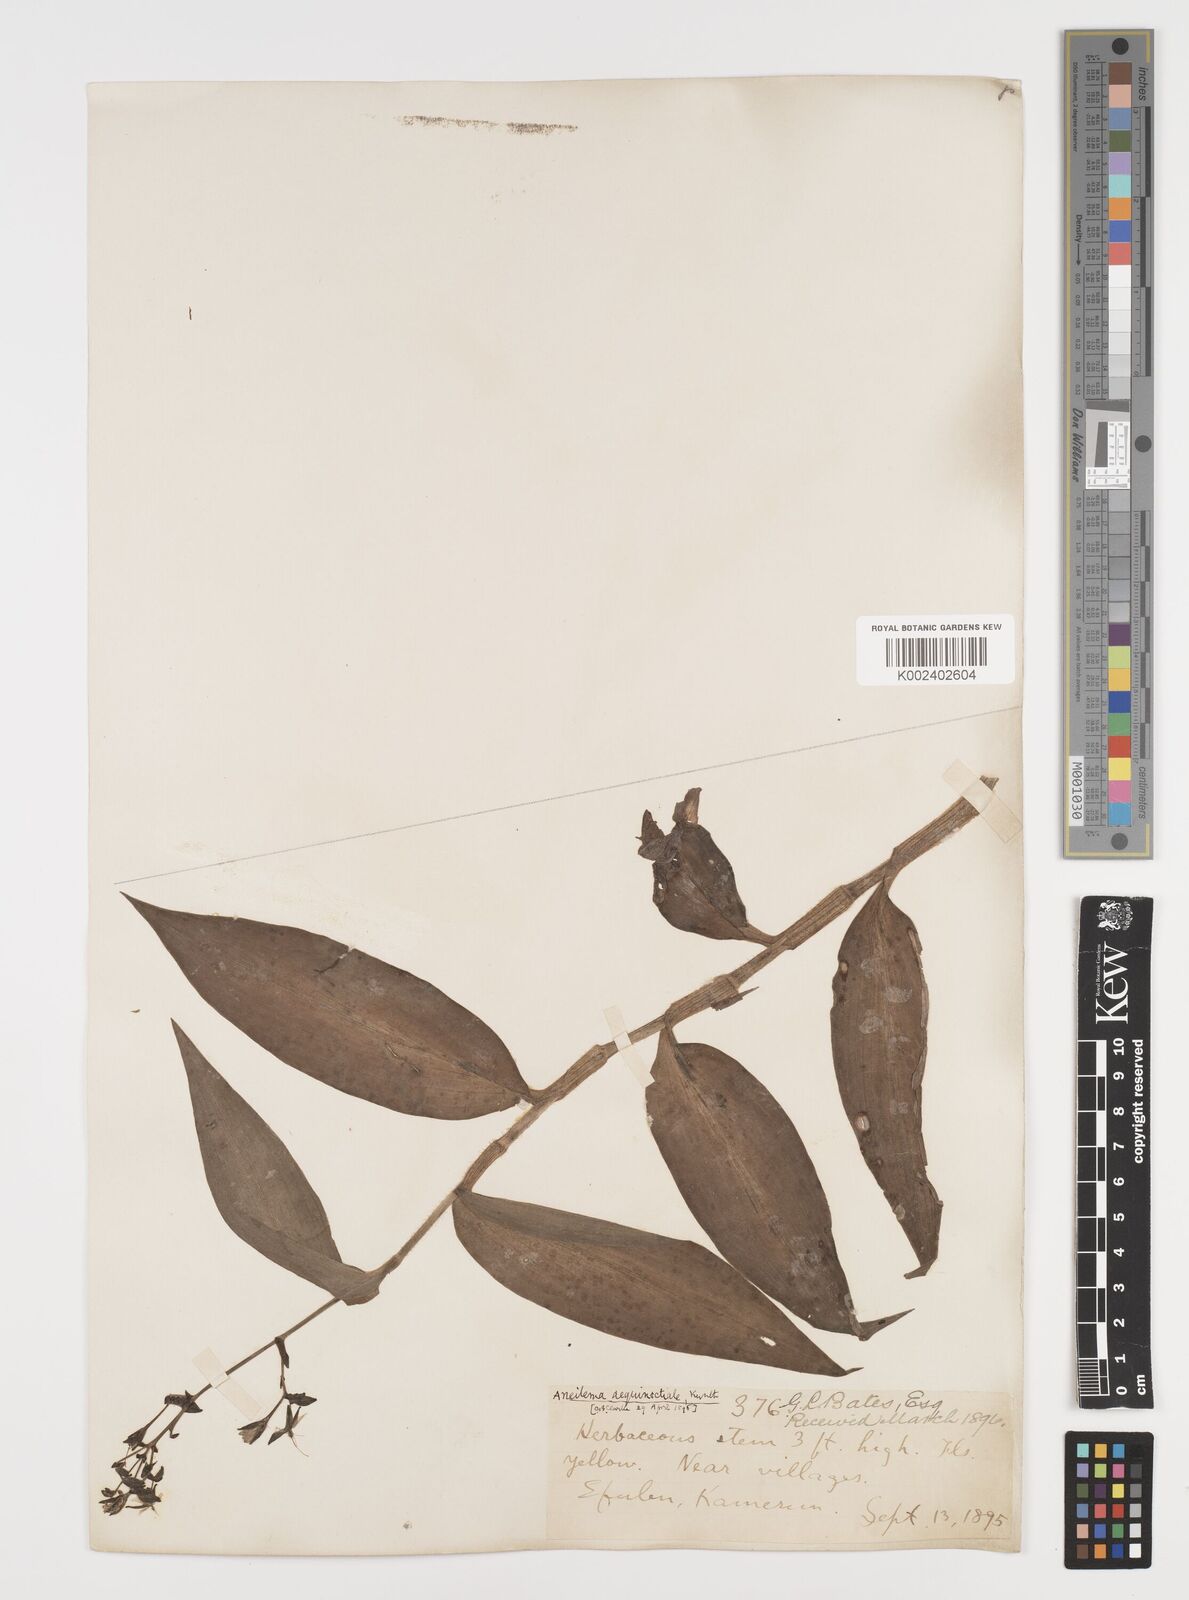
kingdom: Plantae
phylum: Tracheophyta
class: Liliopsida
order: Commelinales
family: Commelinaceae
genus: Aneilema
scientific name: Aneilema aequinoctiale
